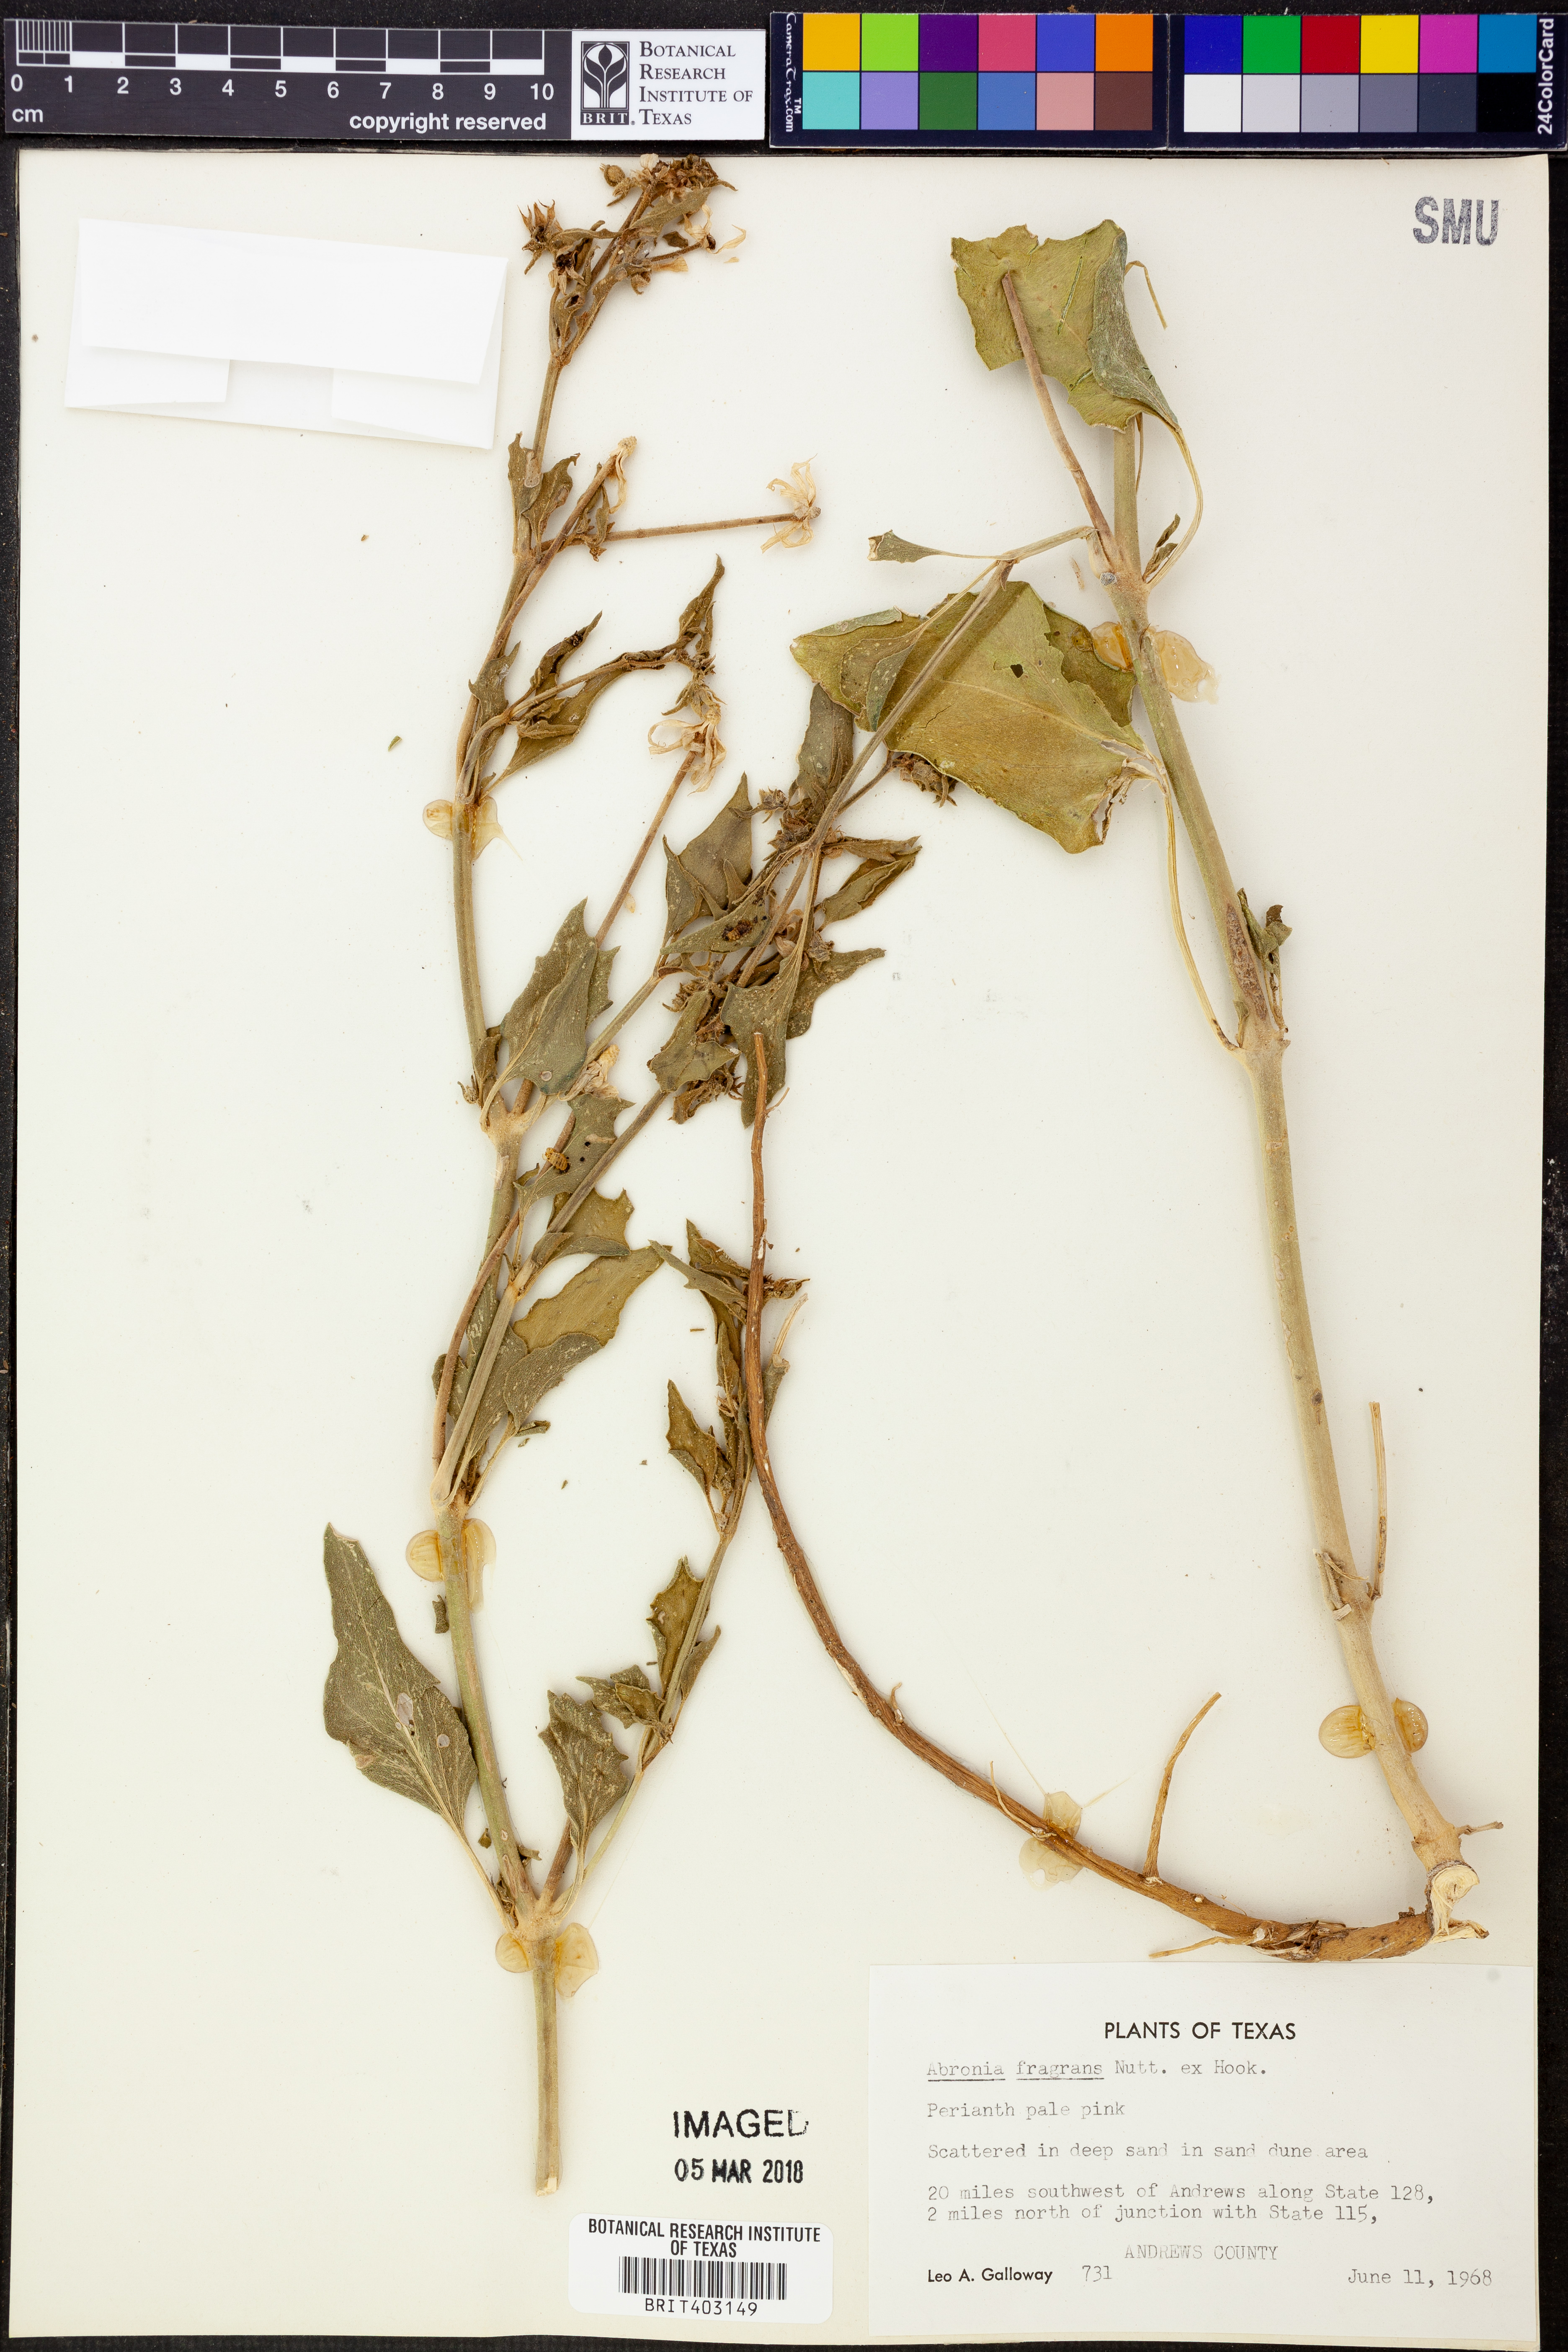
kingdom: Plantae
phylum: Tracheophyta
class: Magnoliopsida
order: Caryophyllales
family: Nyctaginaceae
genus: Abronia
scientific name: Abronia fragrans
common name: Fragrant sand-verbena
